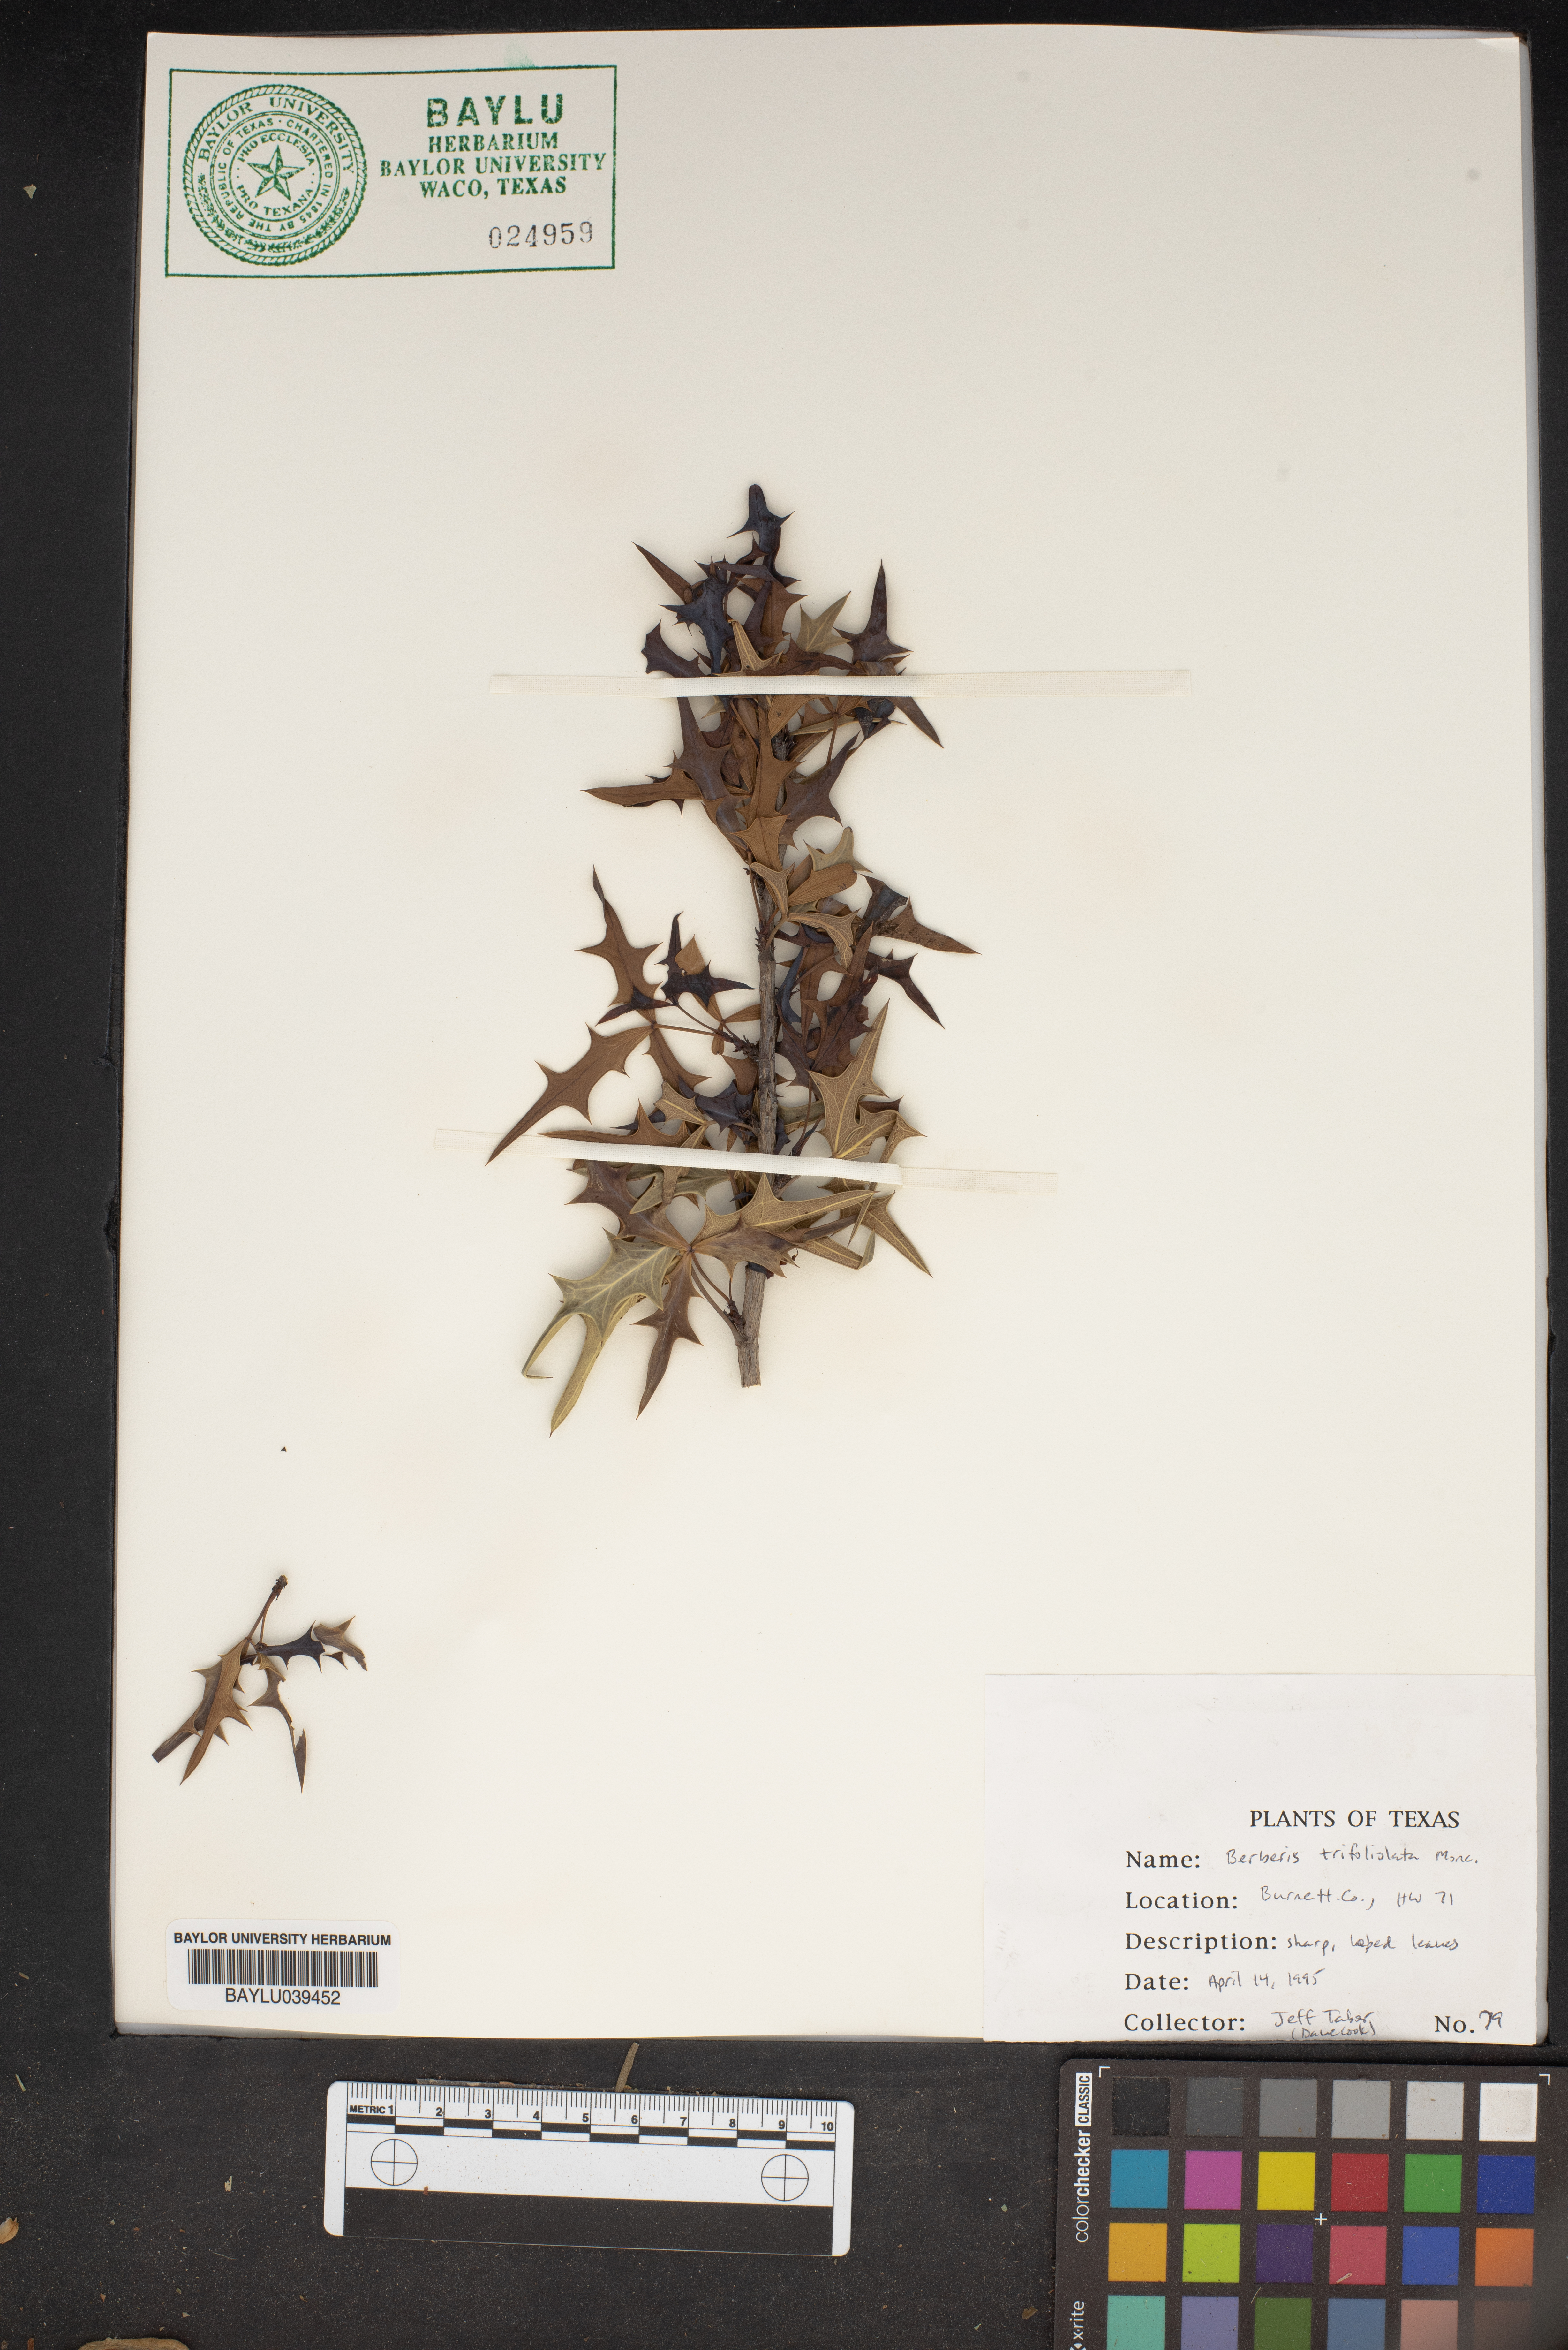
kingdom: Plantae
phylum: Tracheophyta
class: Magnoliopsida
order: Ranunculales
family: Berberidaceae
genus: Alloberberis
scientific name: Alloberberis trifoliolata
